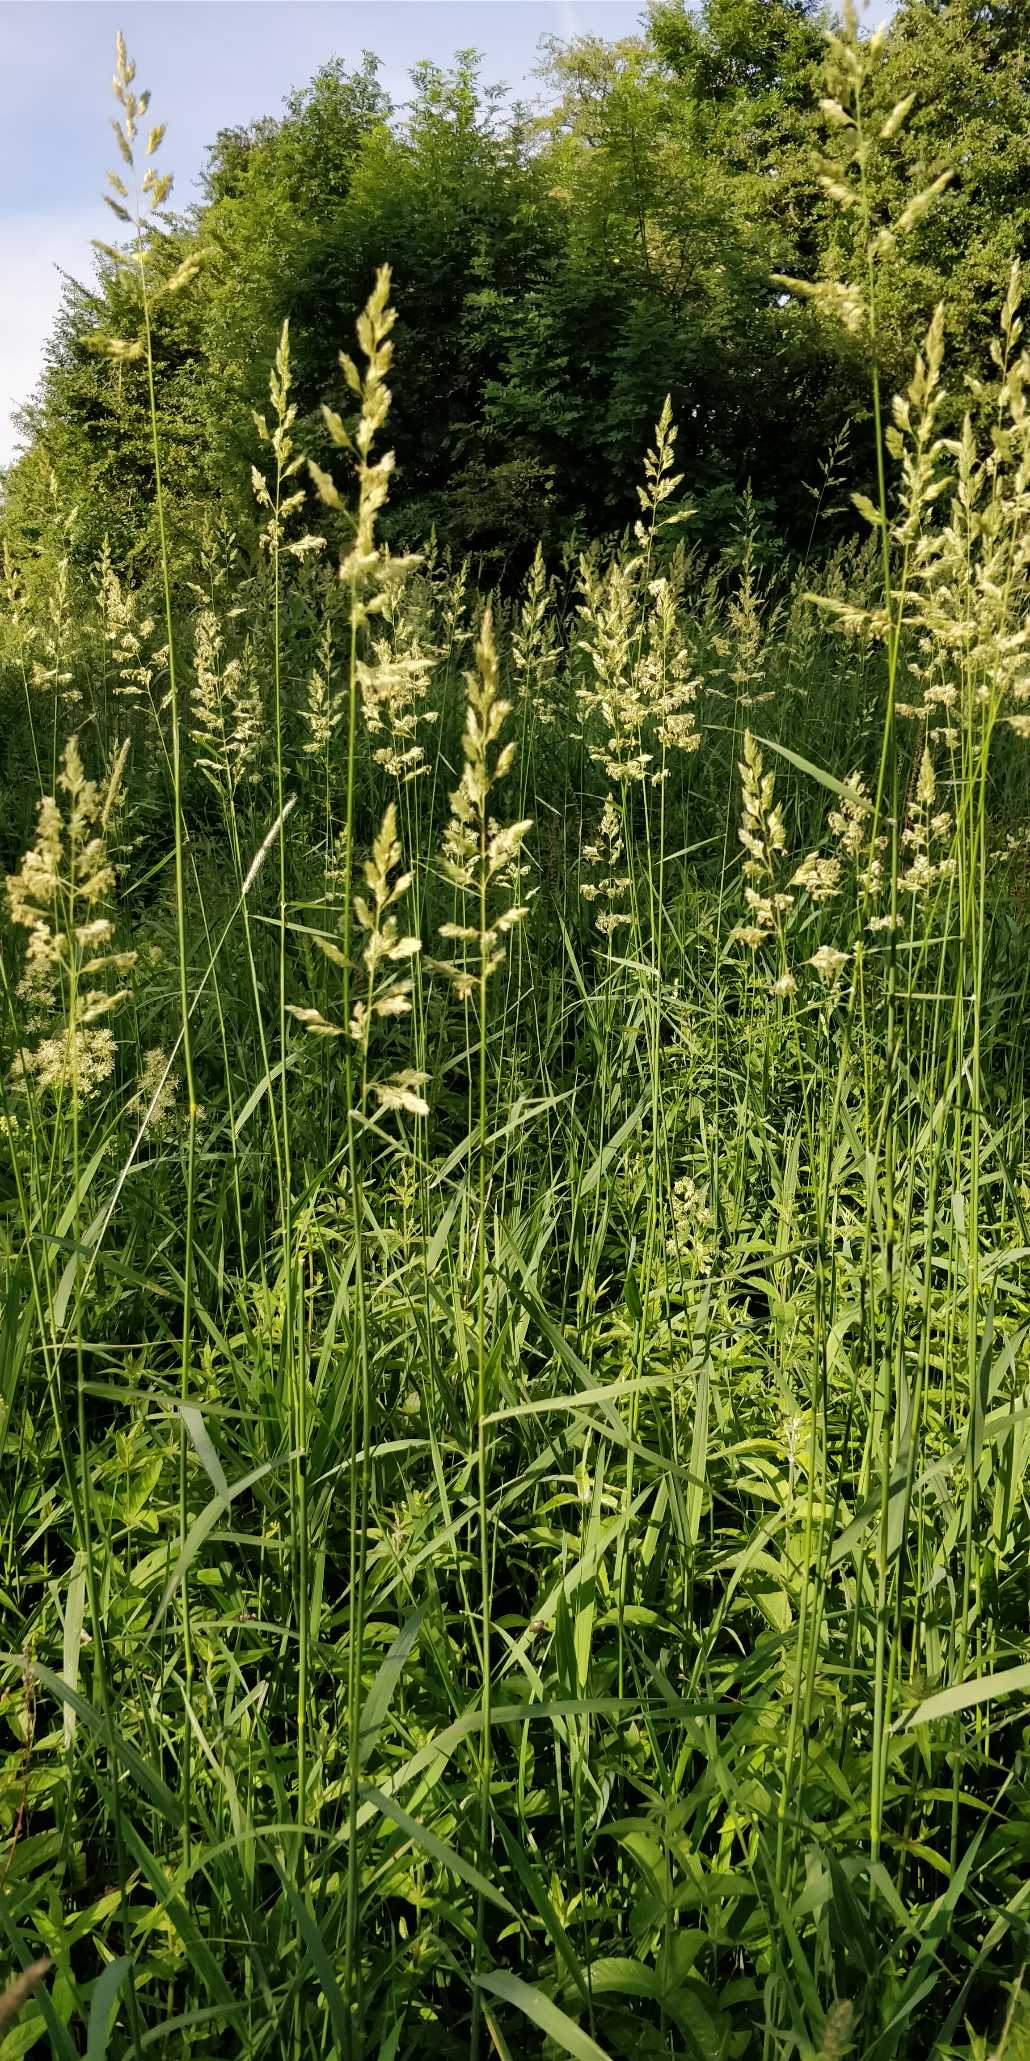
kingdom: Plantae
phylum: Tracheophyta
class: Liliopsida
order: Poales
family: Poaceae
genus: Phalaris
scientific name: Phalaris arundinacea
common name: Rørgræs
